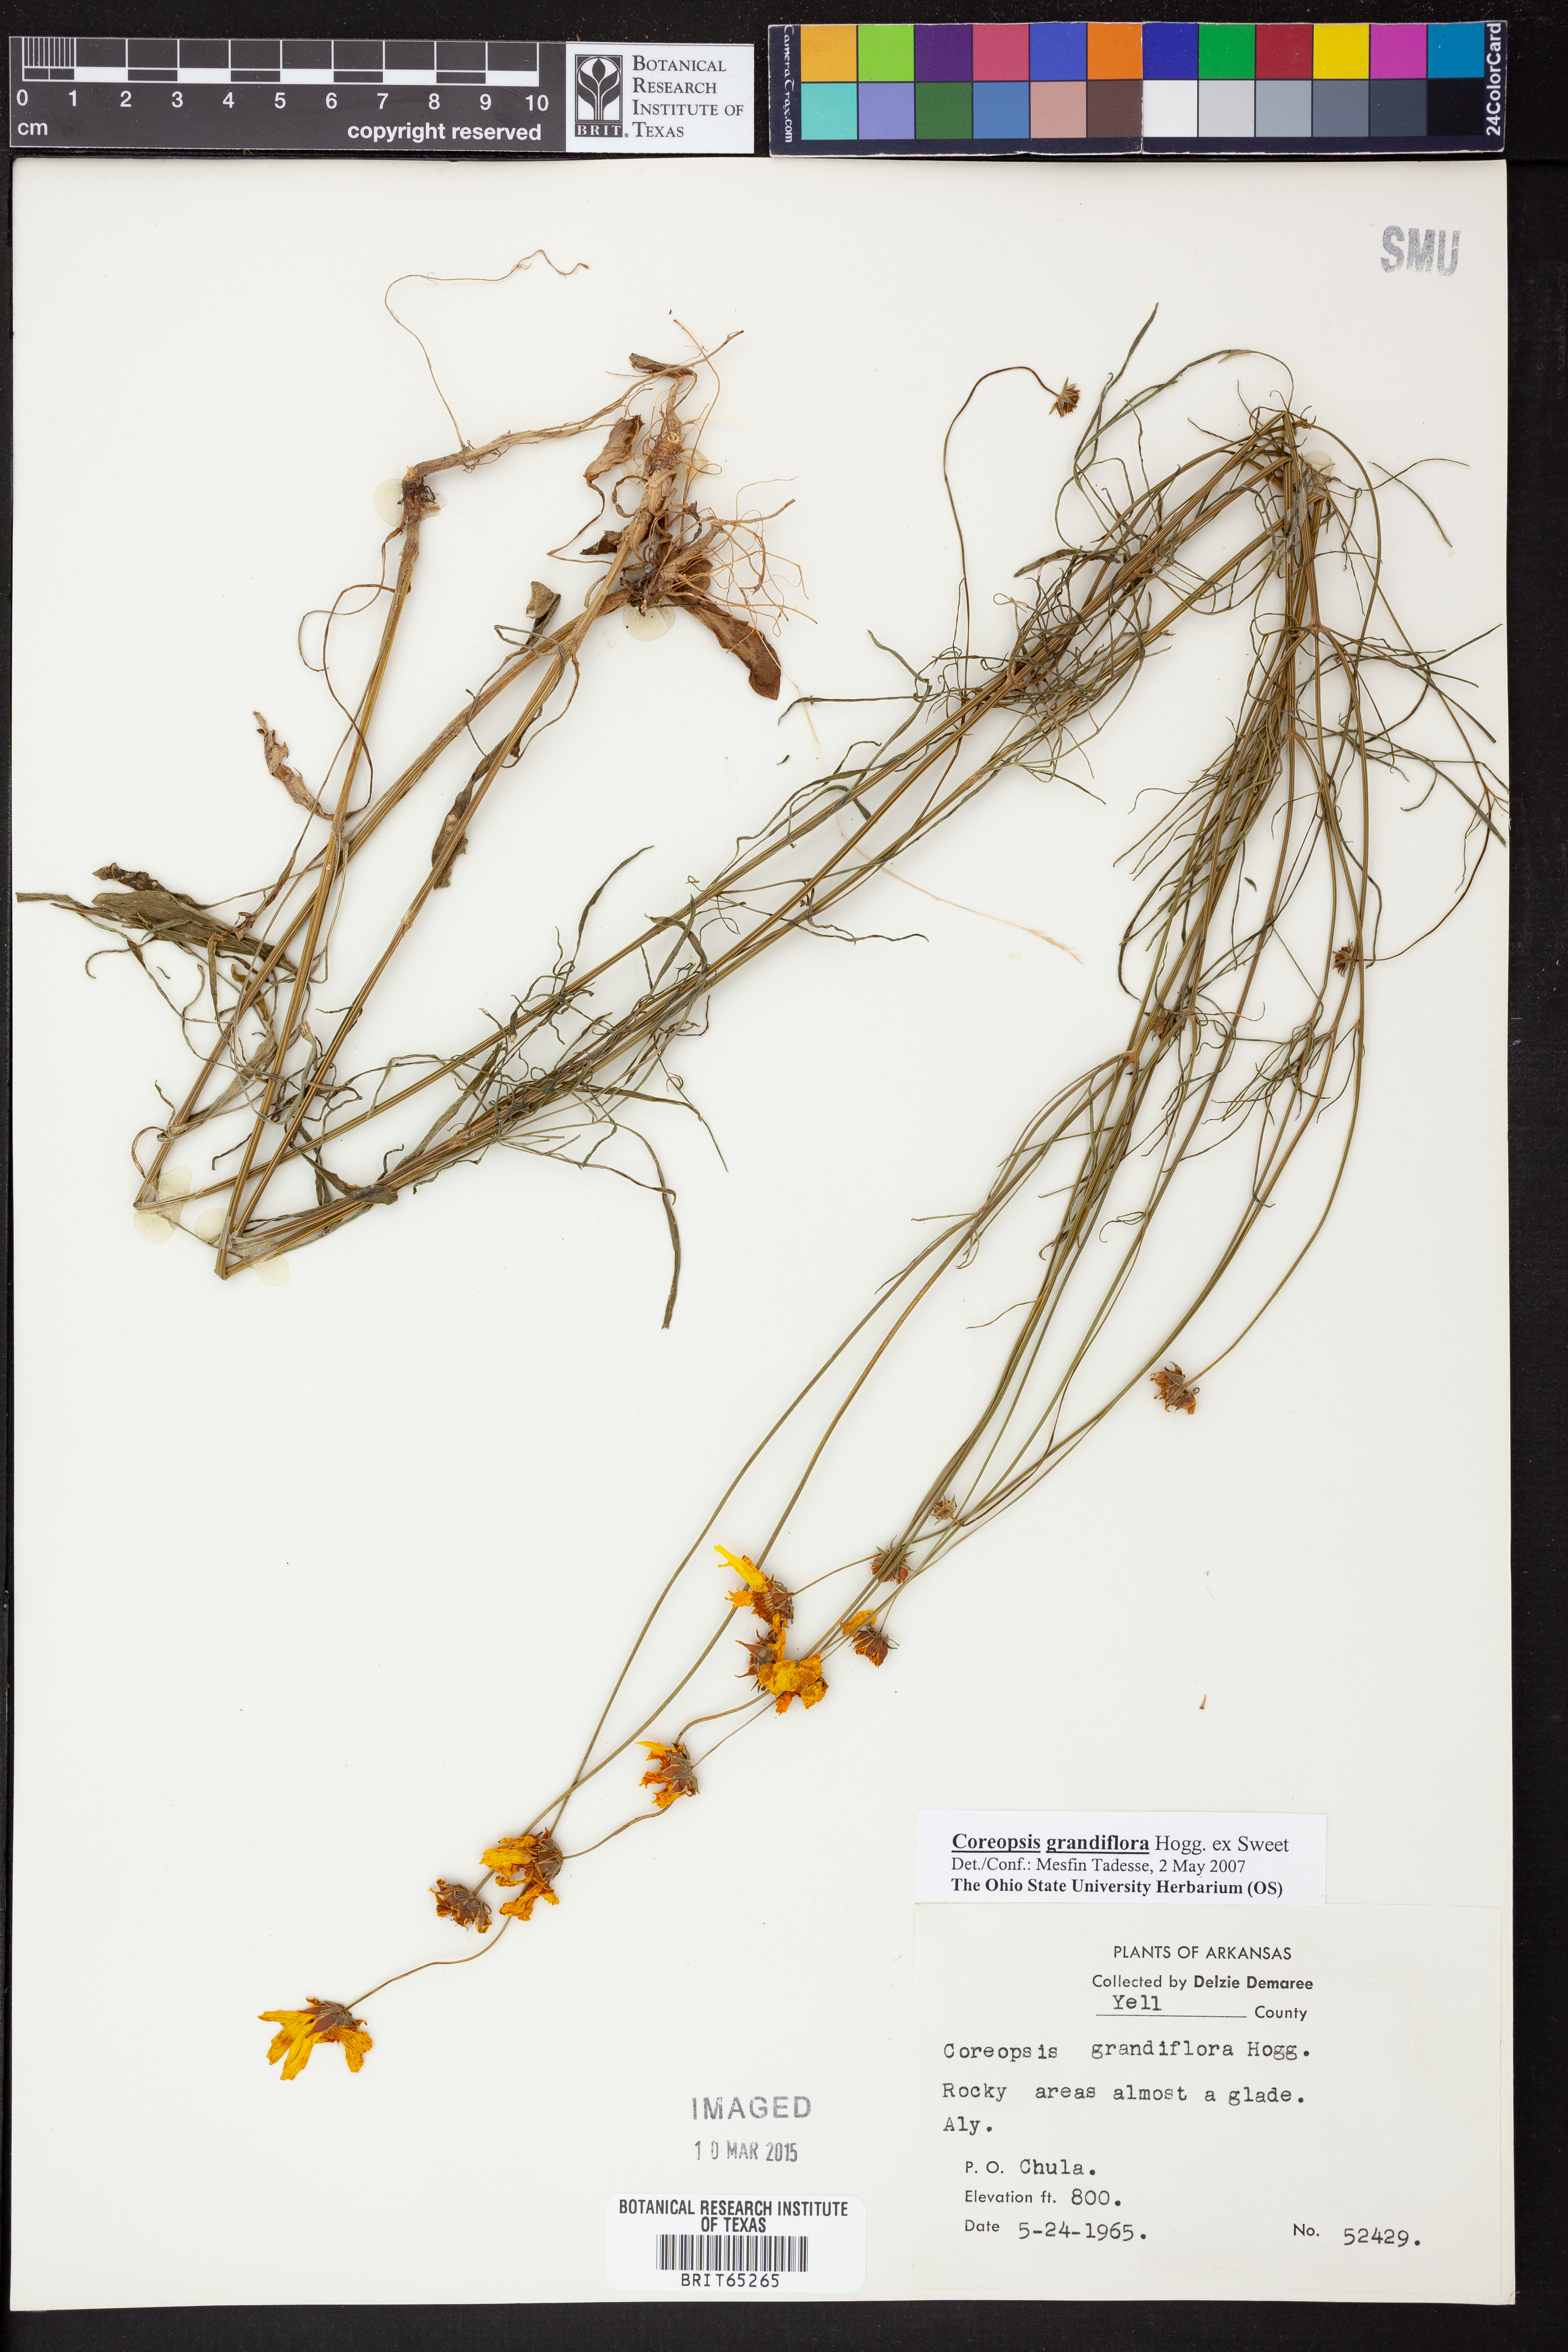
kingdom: Plantae
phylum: Tracheophyta
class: Magnoliopsida
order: Asterales
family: Asteraceae
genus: Coreopsis
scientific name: Coreopsis grandiflora
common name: Large-flowered tickseed
